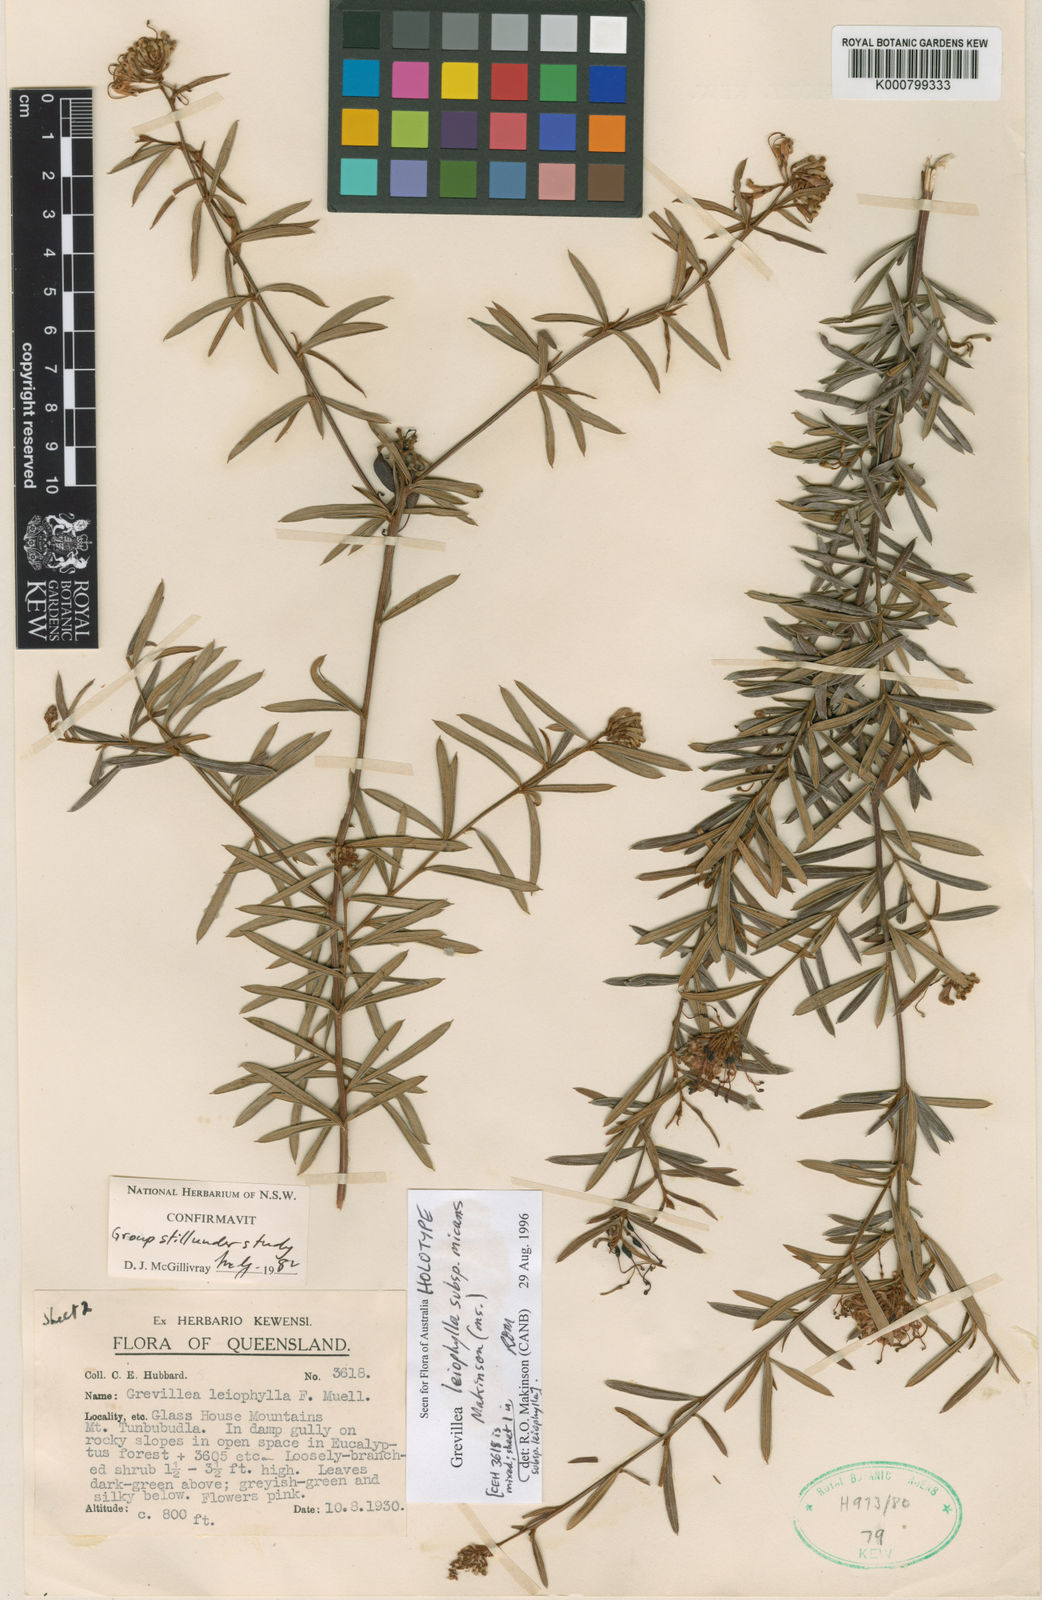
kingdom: Plantae
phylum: Tracheophyta
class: Magnoliopsida
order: Proteales
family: Proteaceae
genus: Grevillea
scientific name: Grevillea leiophylla
